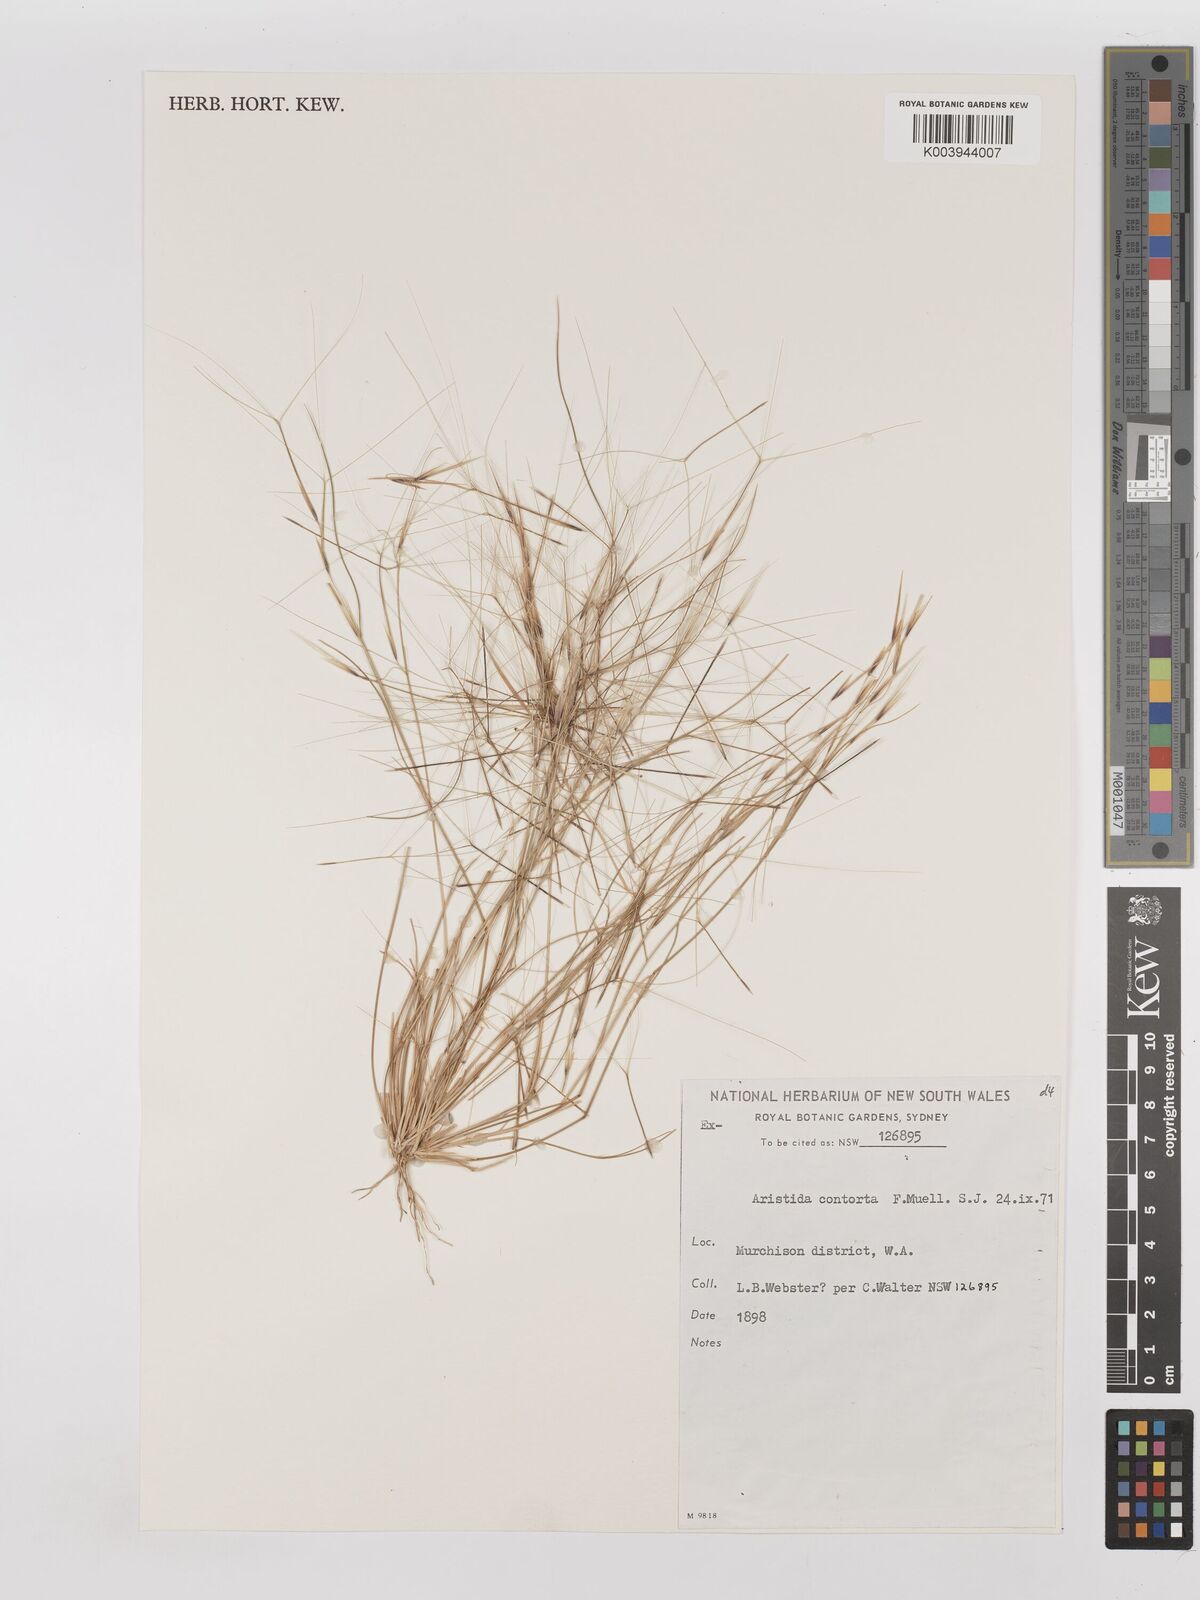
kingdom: Plantae
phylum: Tracheophyta
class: Liliopsida
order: Poales
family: Poaceae
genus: Aristida
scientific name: Aristida contorta
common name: Bunch kerosene grass
